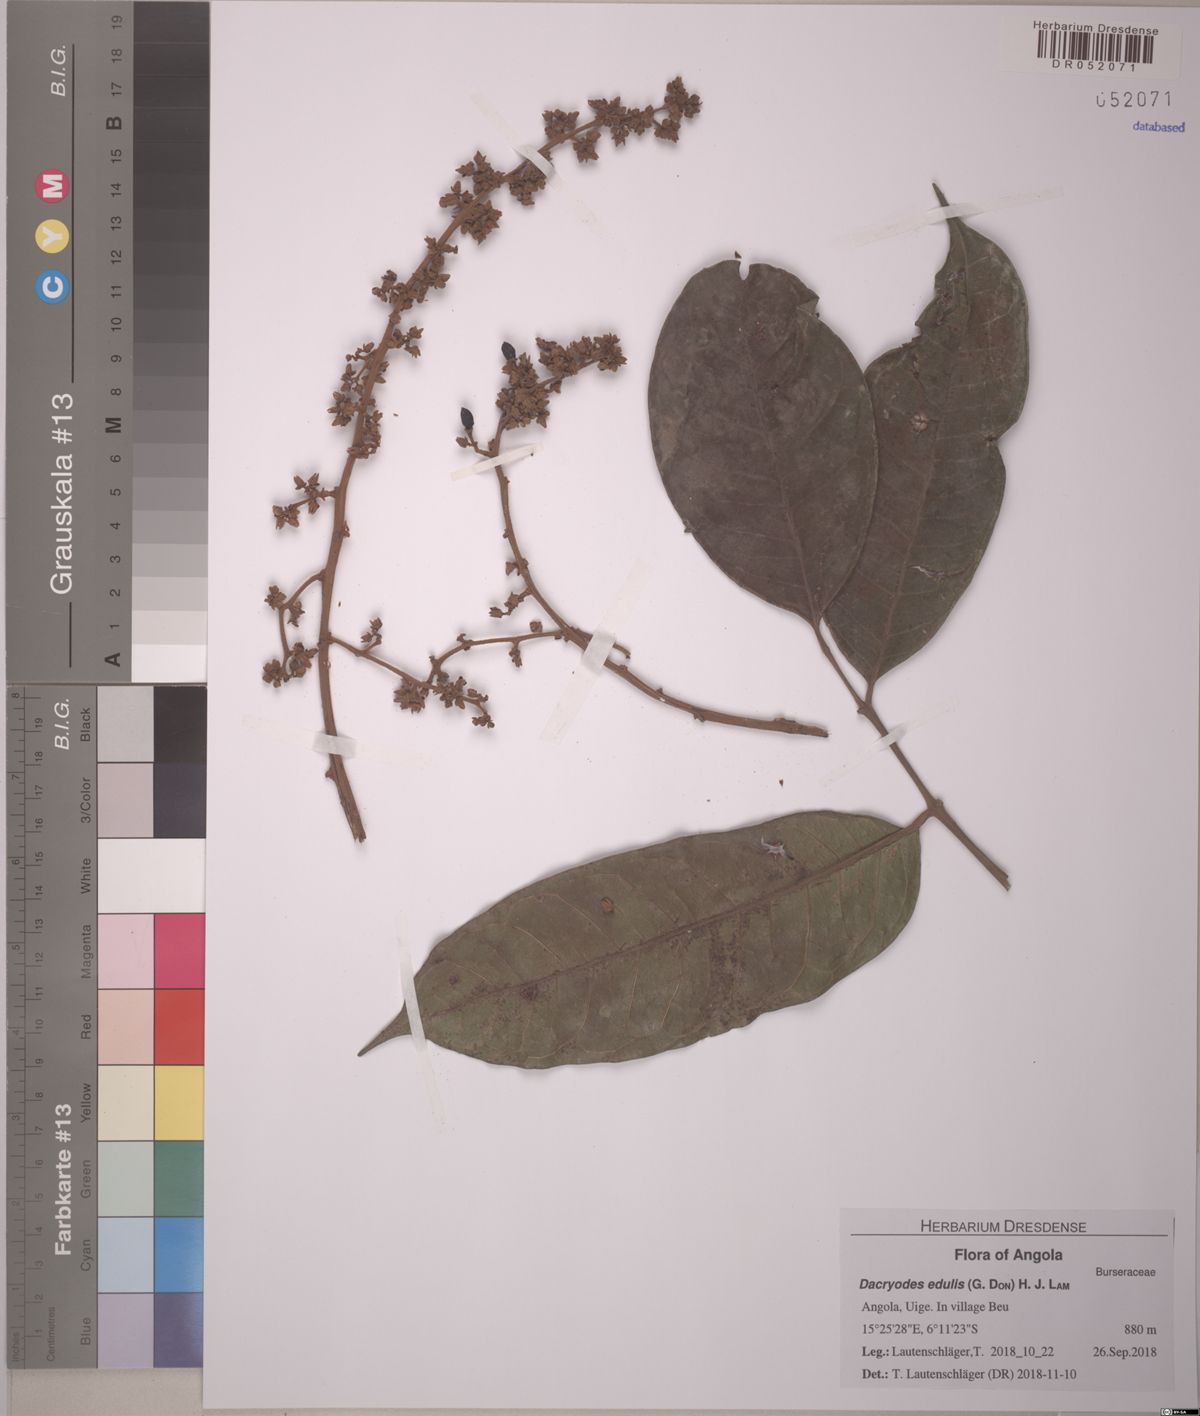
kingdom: Plantae
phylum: Tracheophyta
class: Magnoliopsida
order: Sapindales
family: Burseraceae
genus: Pachylobus
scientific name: Pachylobus edulis
